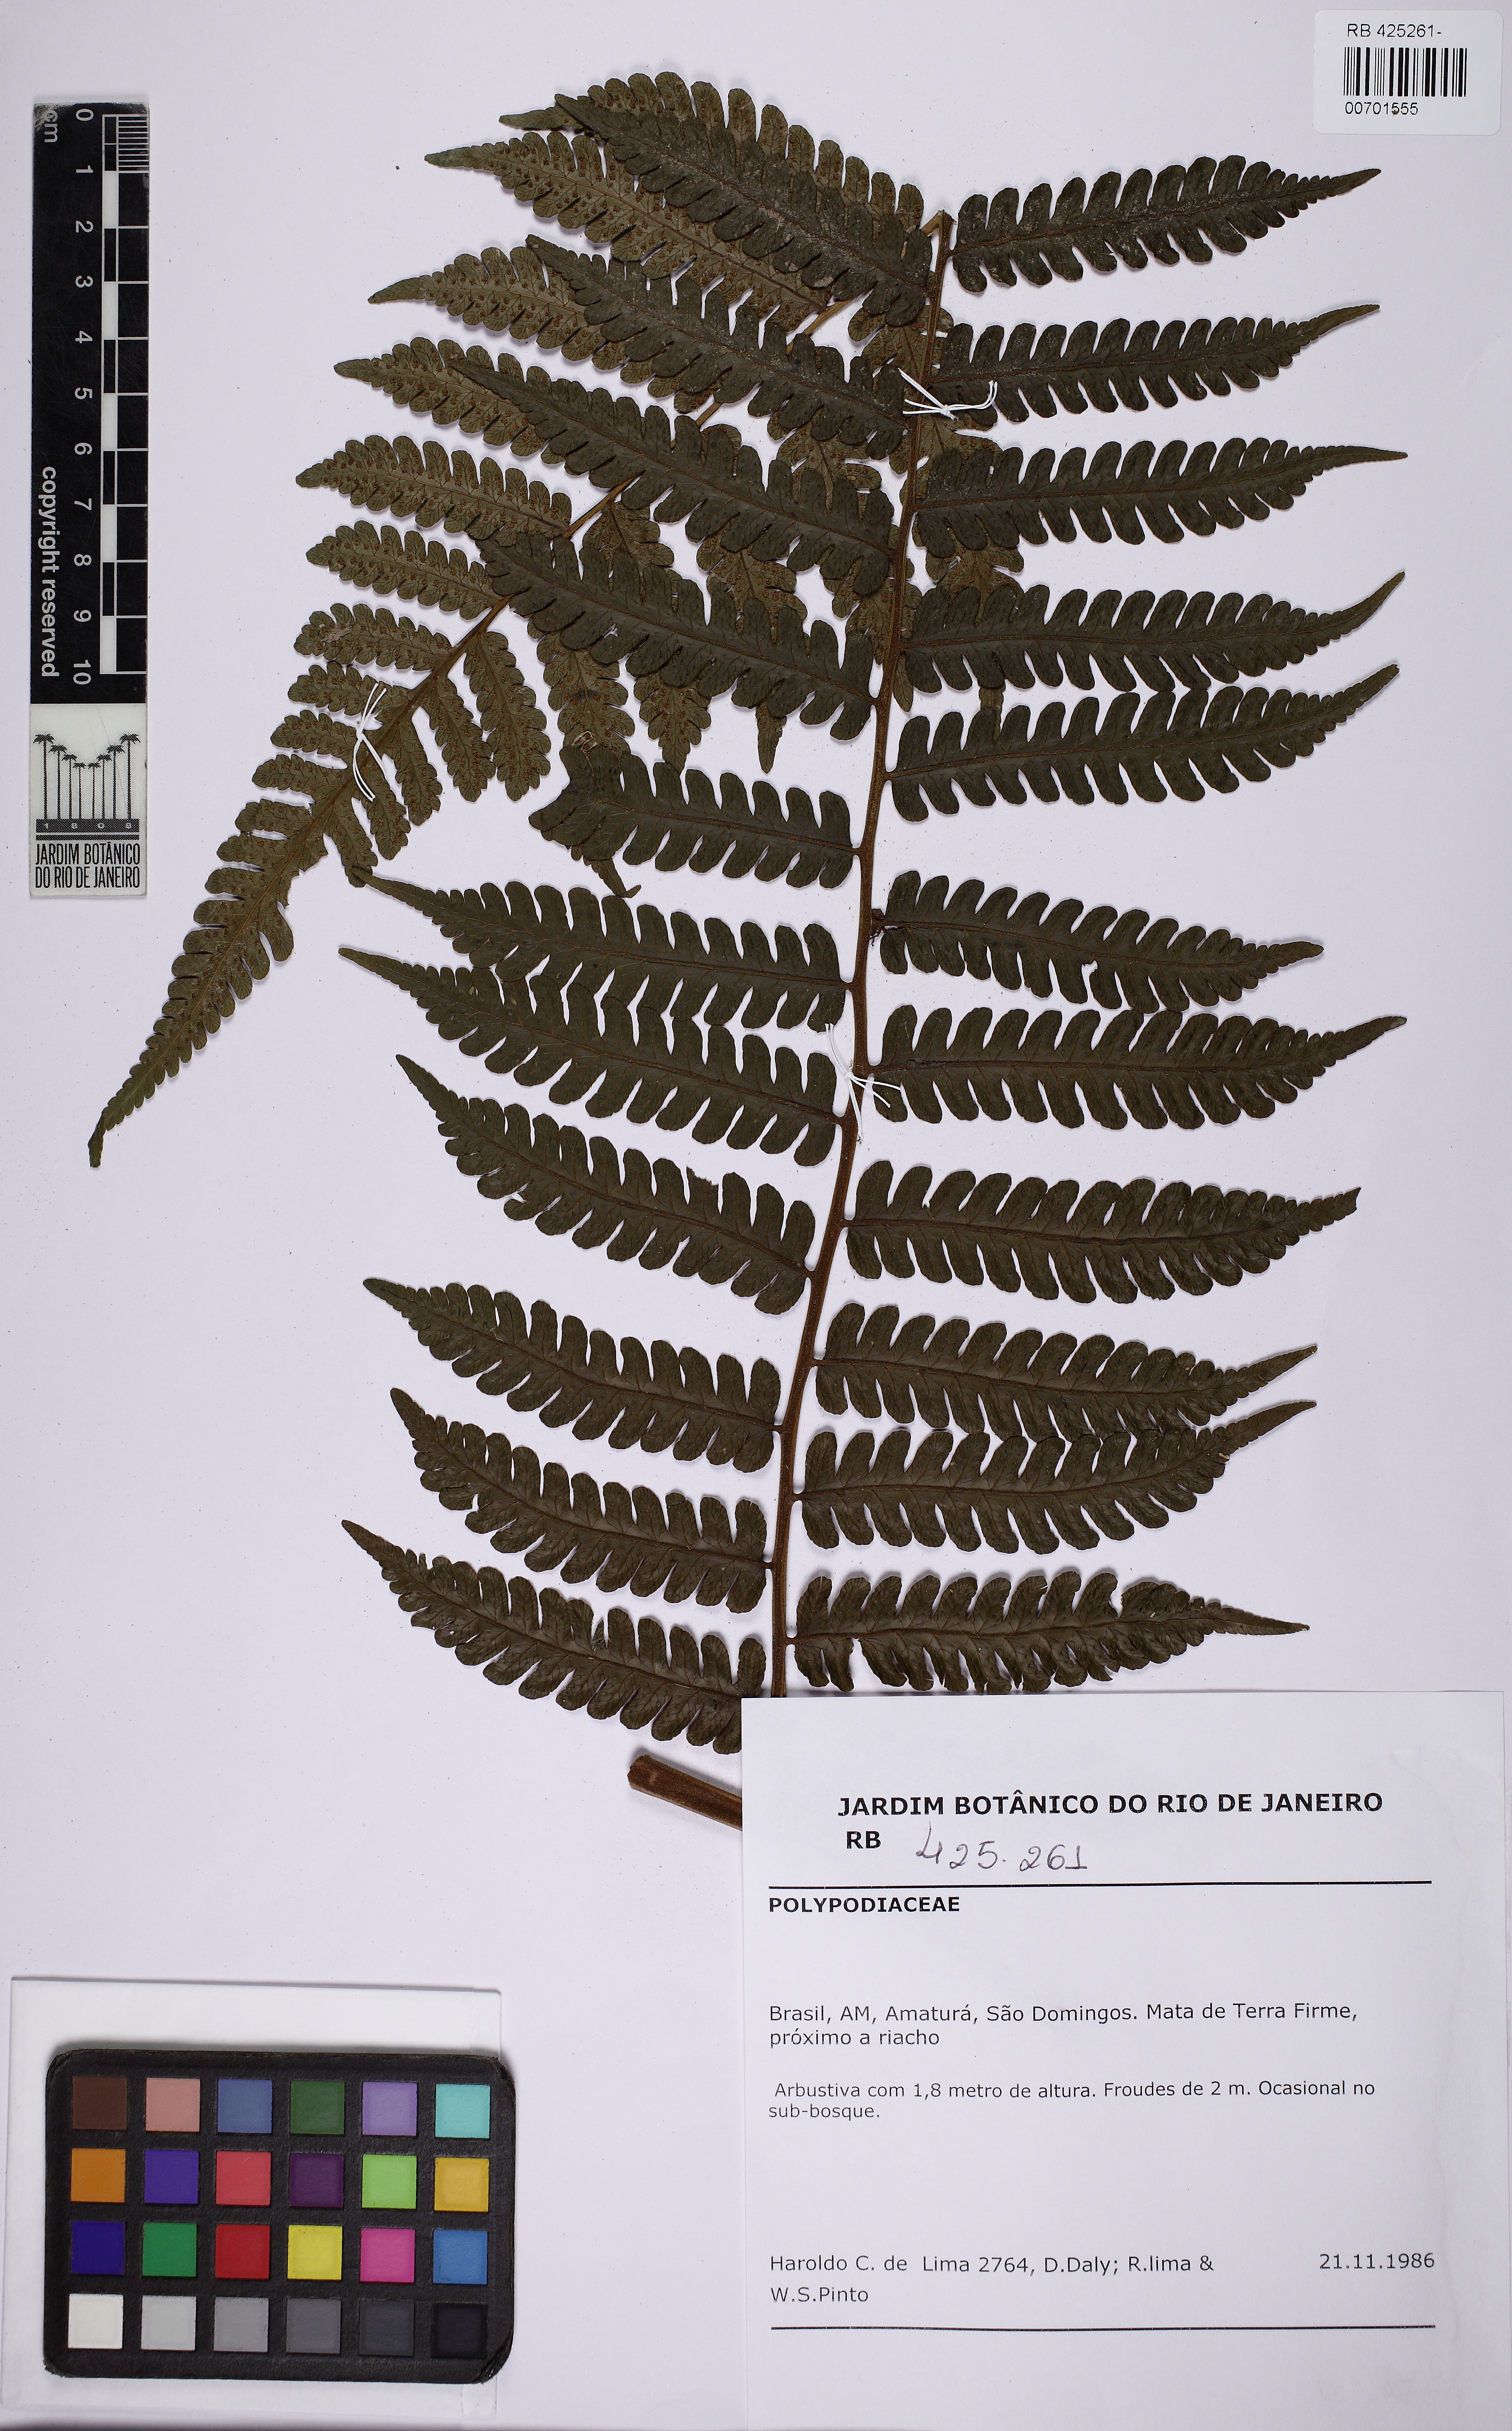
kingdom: Plantae
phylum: Tracheophyta
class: Polypodiopsida
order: Cyatheales
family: Cyatheaceae
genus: Cyathea
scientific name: Cyathea
